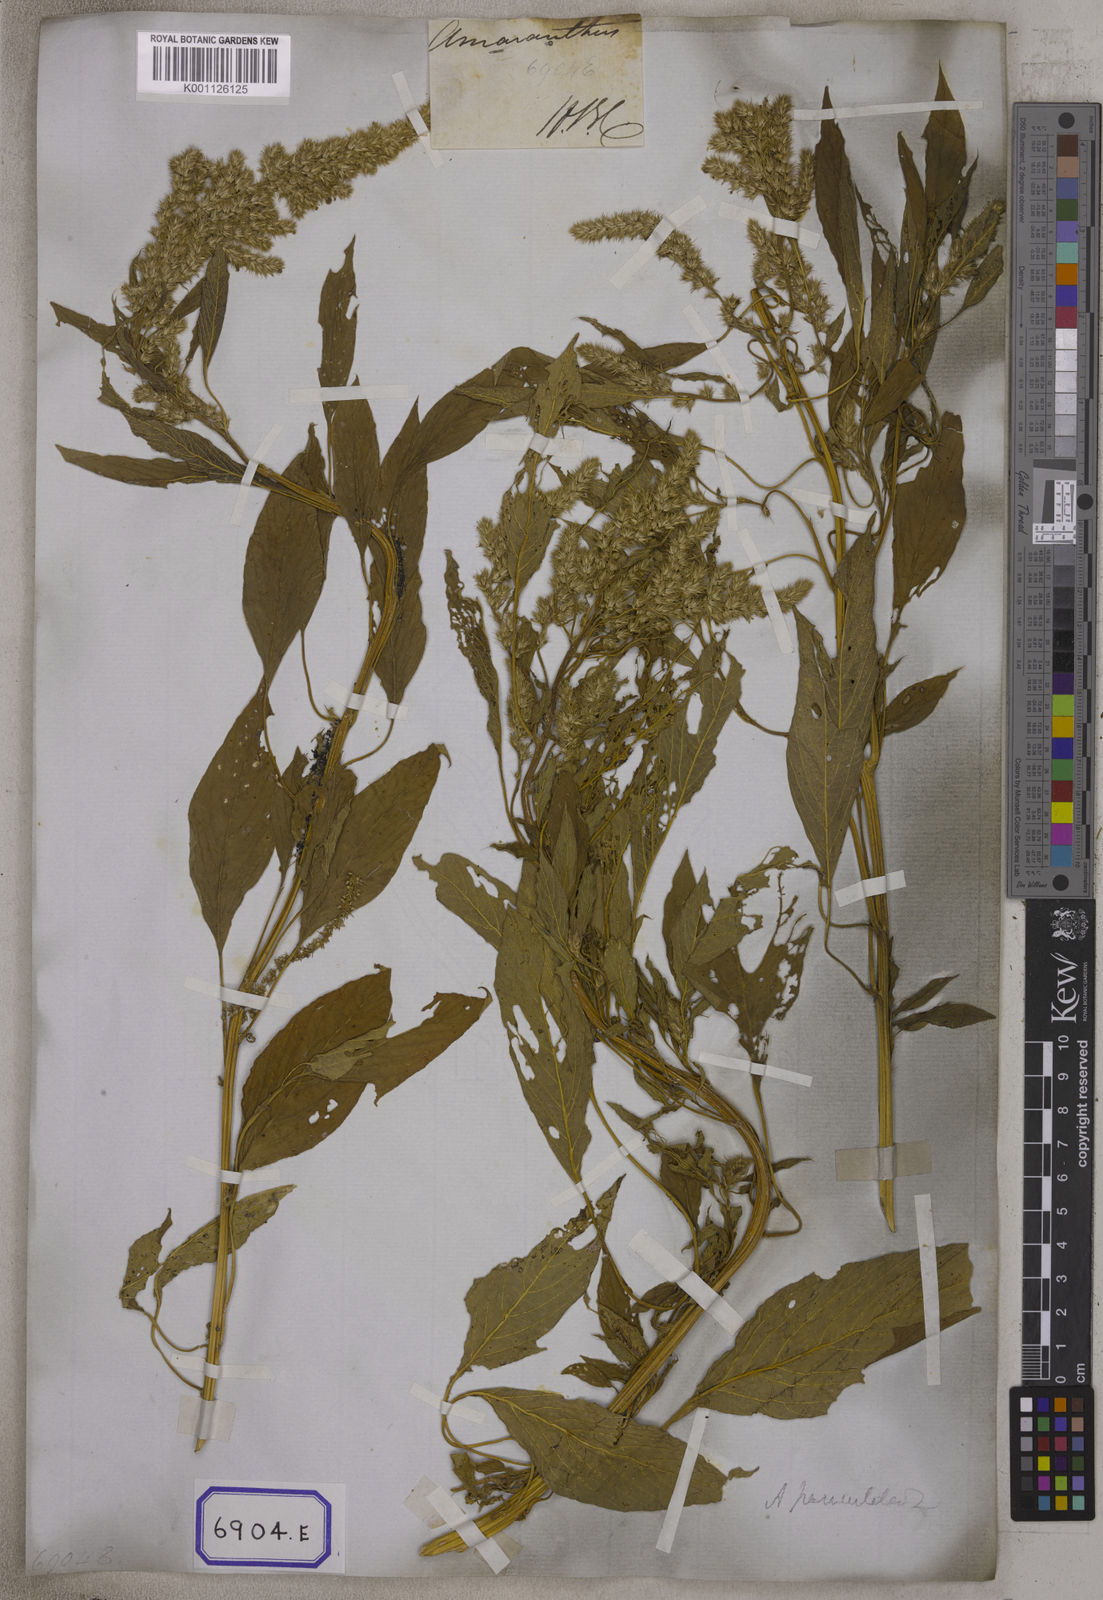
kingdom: Plantae
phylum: Tracheophyta
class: Magnoliopsida
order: Caryophyllales
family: Amaranthaceae
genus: Amaranthus
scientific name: Amaranthus
